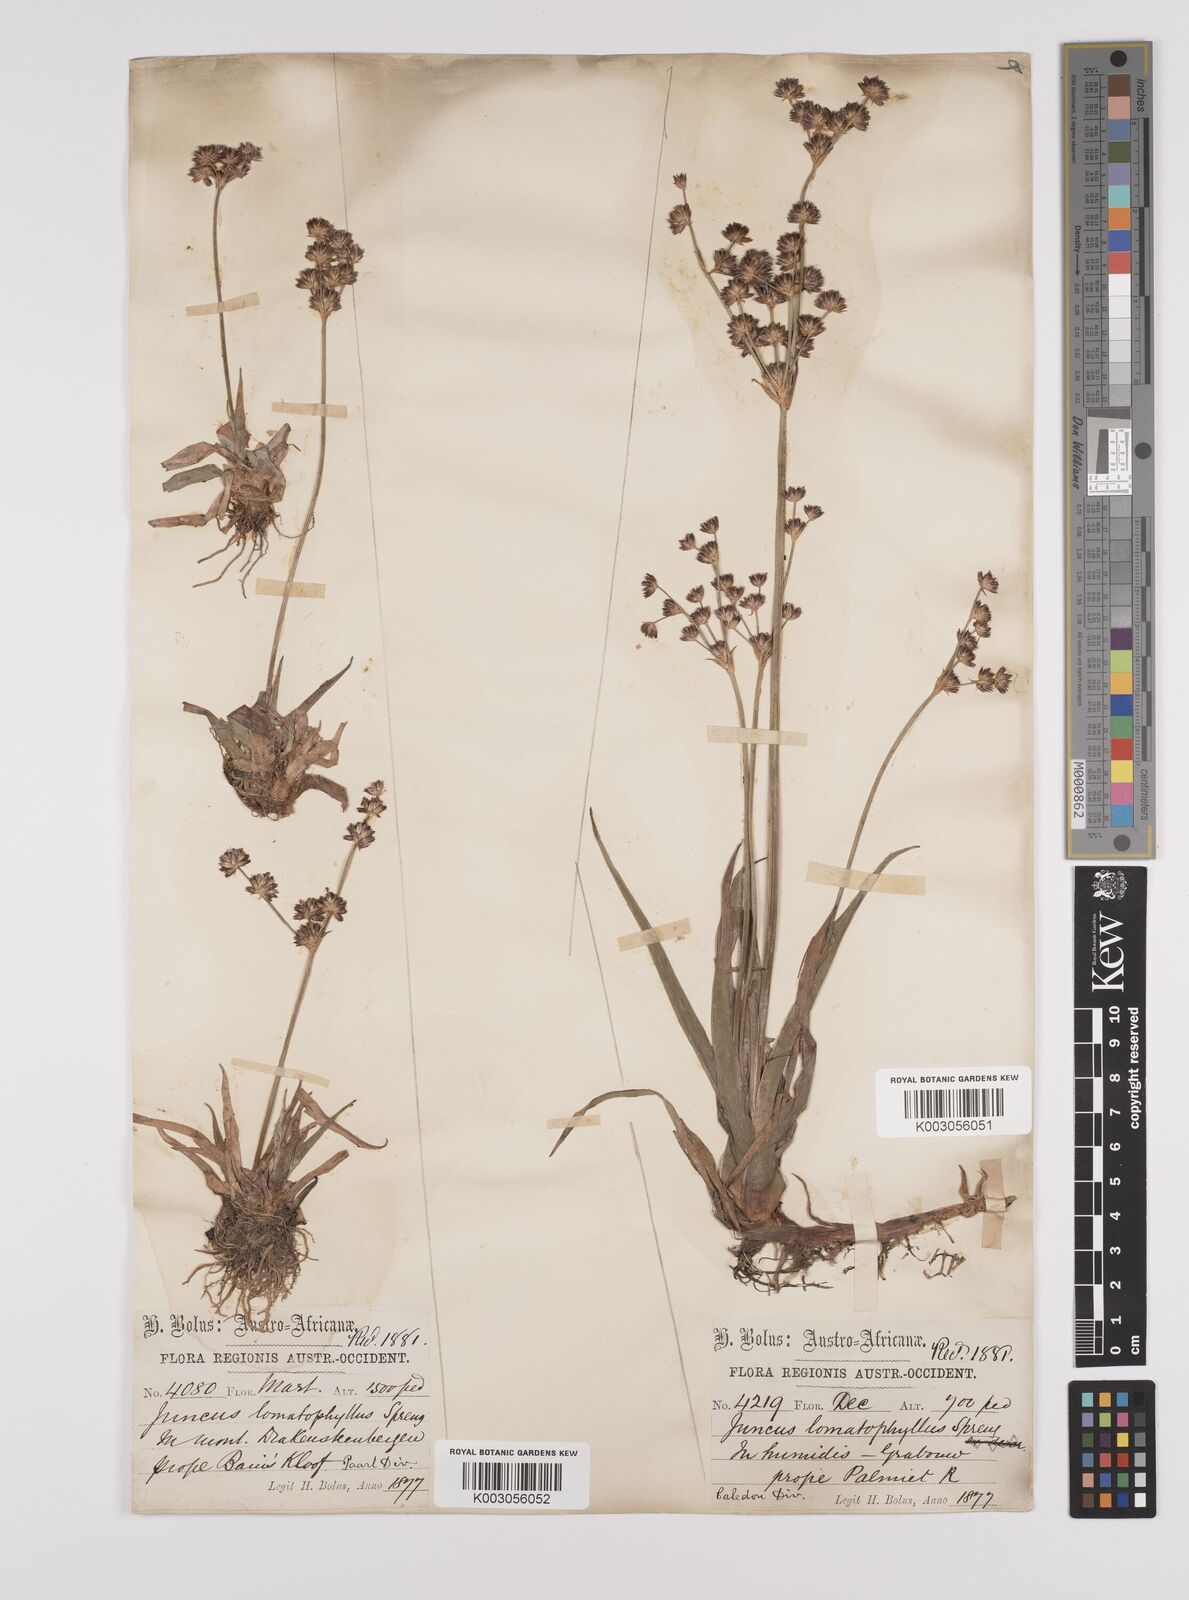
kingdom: Plantae
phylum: Tracheophyta
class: Liliopsida
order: Poales
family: Juncaceae
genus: Juncus
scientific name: Juncus lomatophyllus
